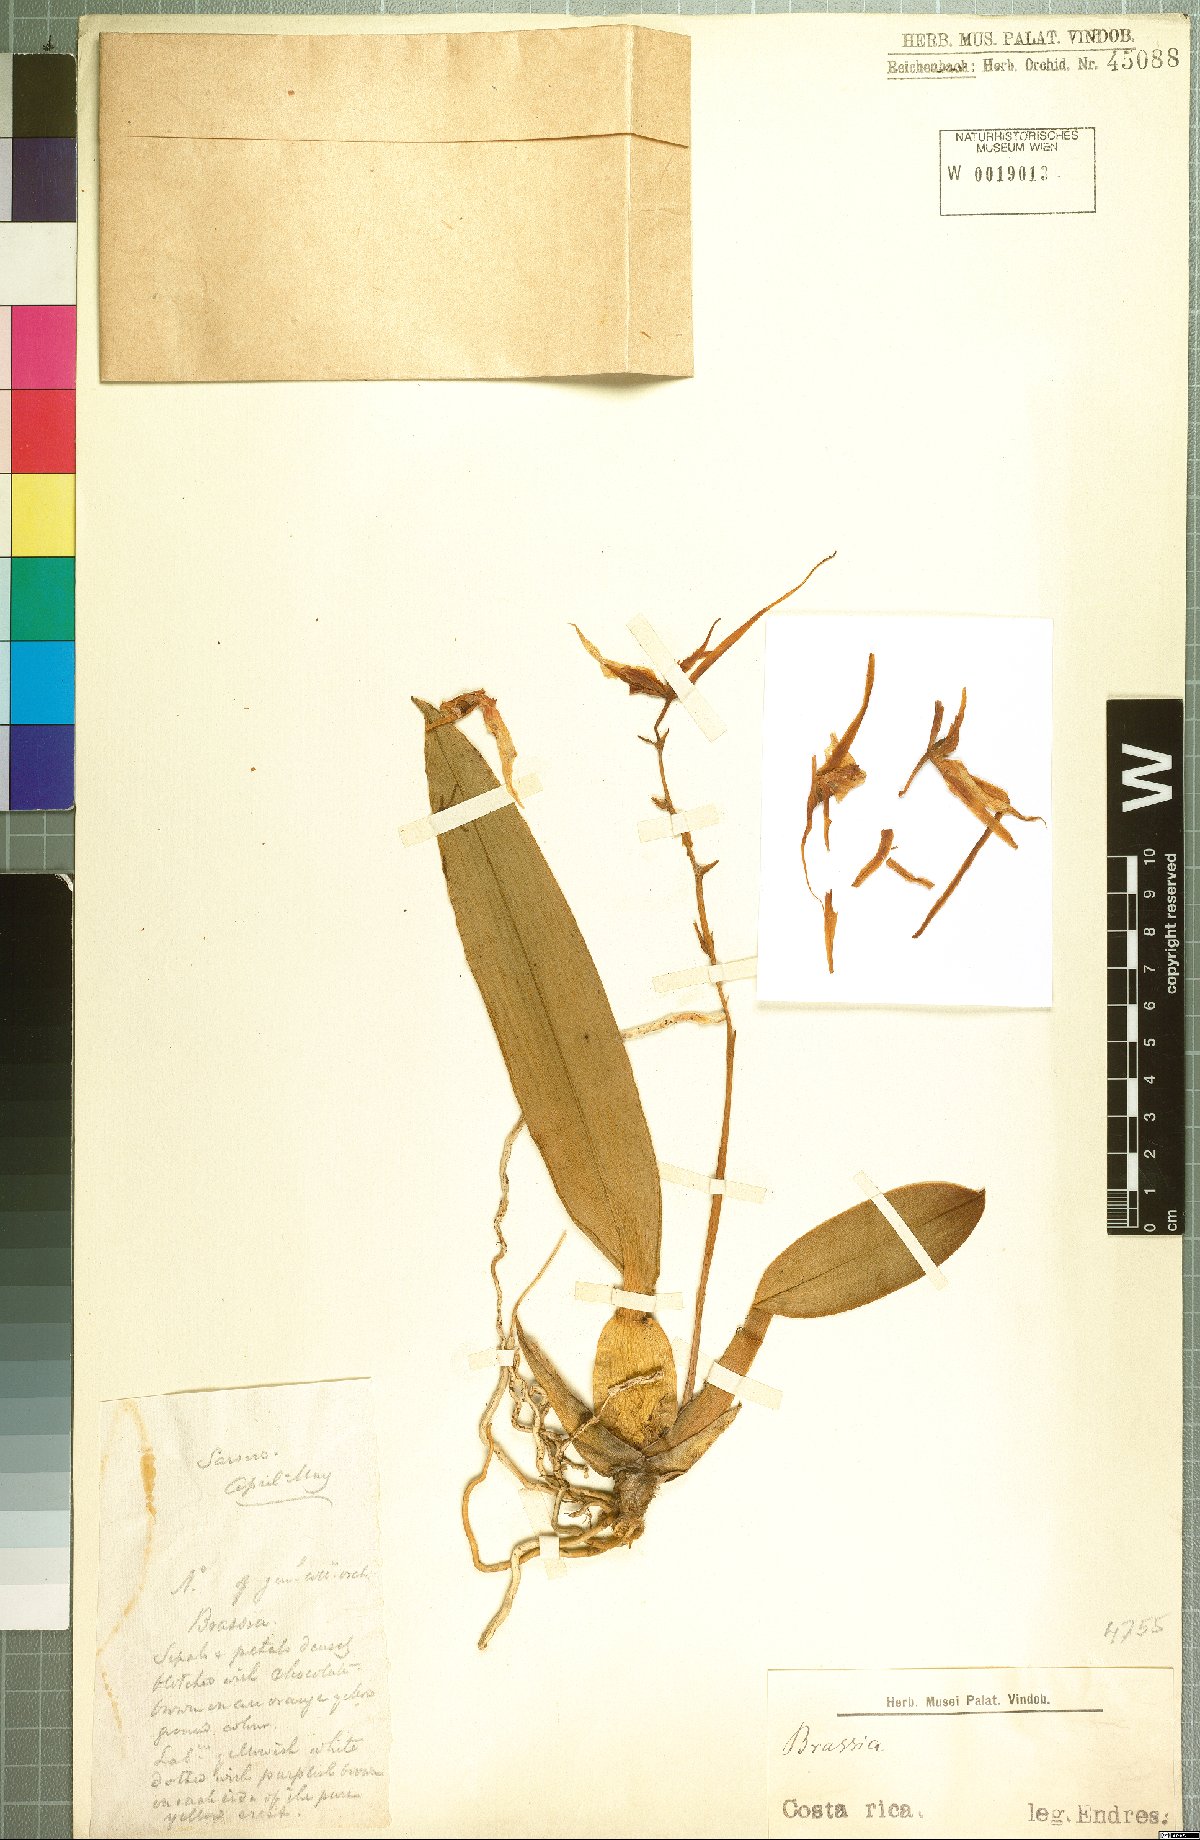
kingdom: Plantae
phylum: Tracheophyta
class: Liliopsida
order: Asparagales
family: Orchidaceae
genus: Brassia
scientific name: Brassia
